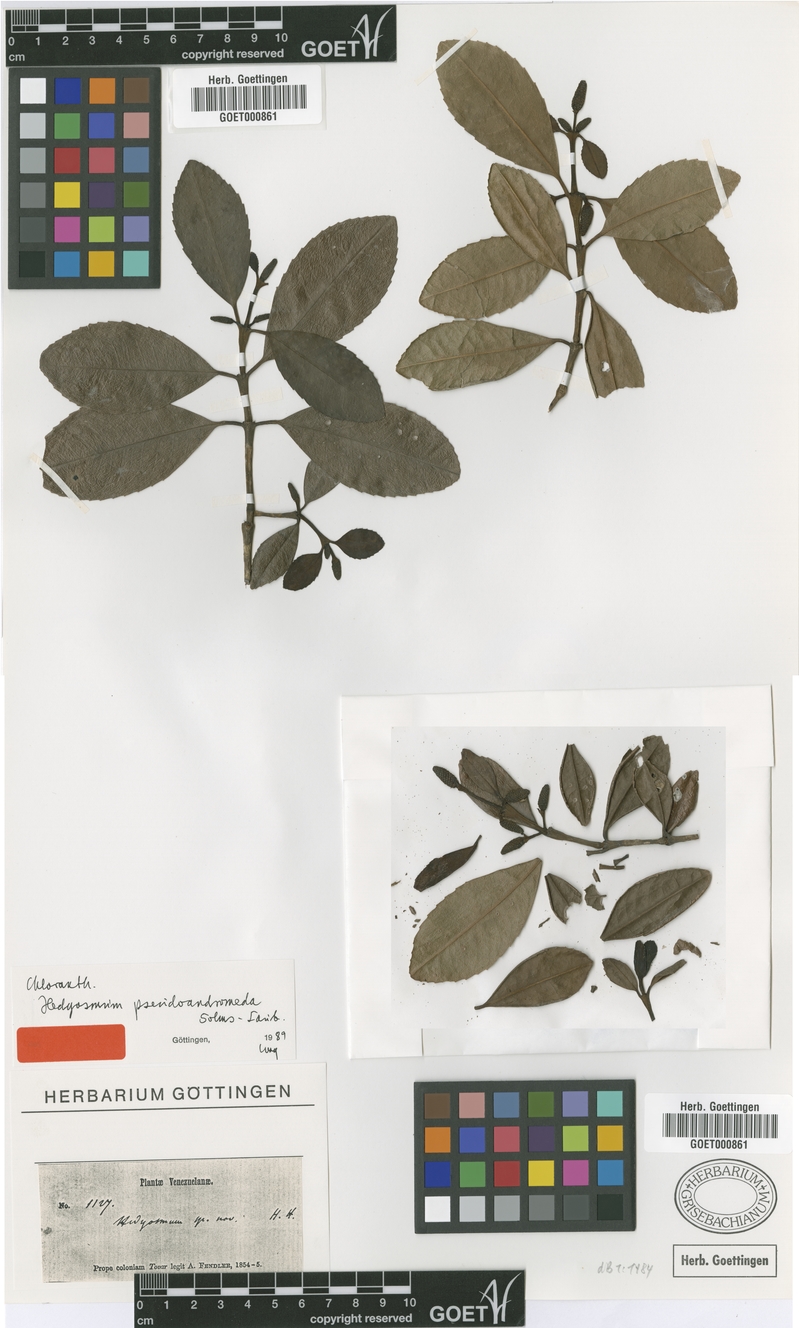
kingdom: Plantae
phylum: Tracheophyta
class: Magnoliopsida
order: Chloranthales
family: Chloranthaceae
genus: Hedyosmum
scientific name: Hedyosmum pseudoandromeda
